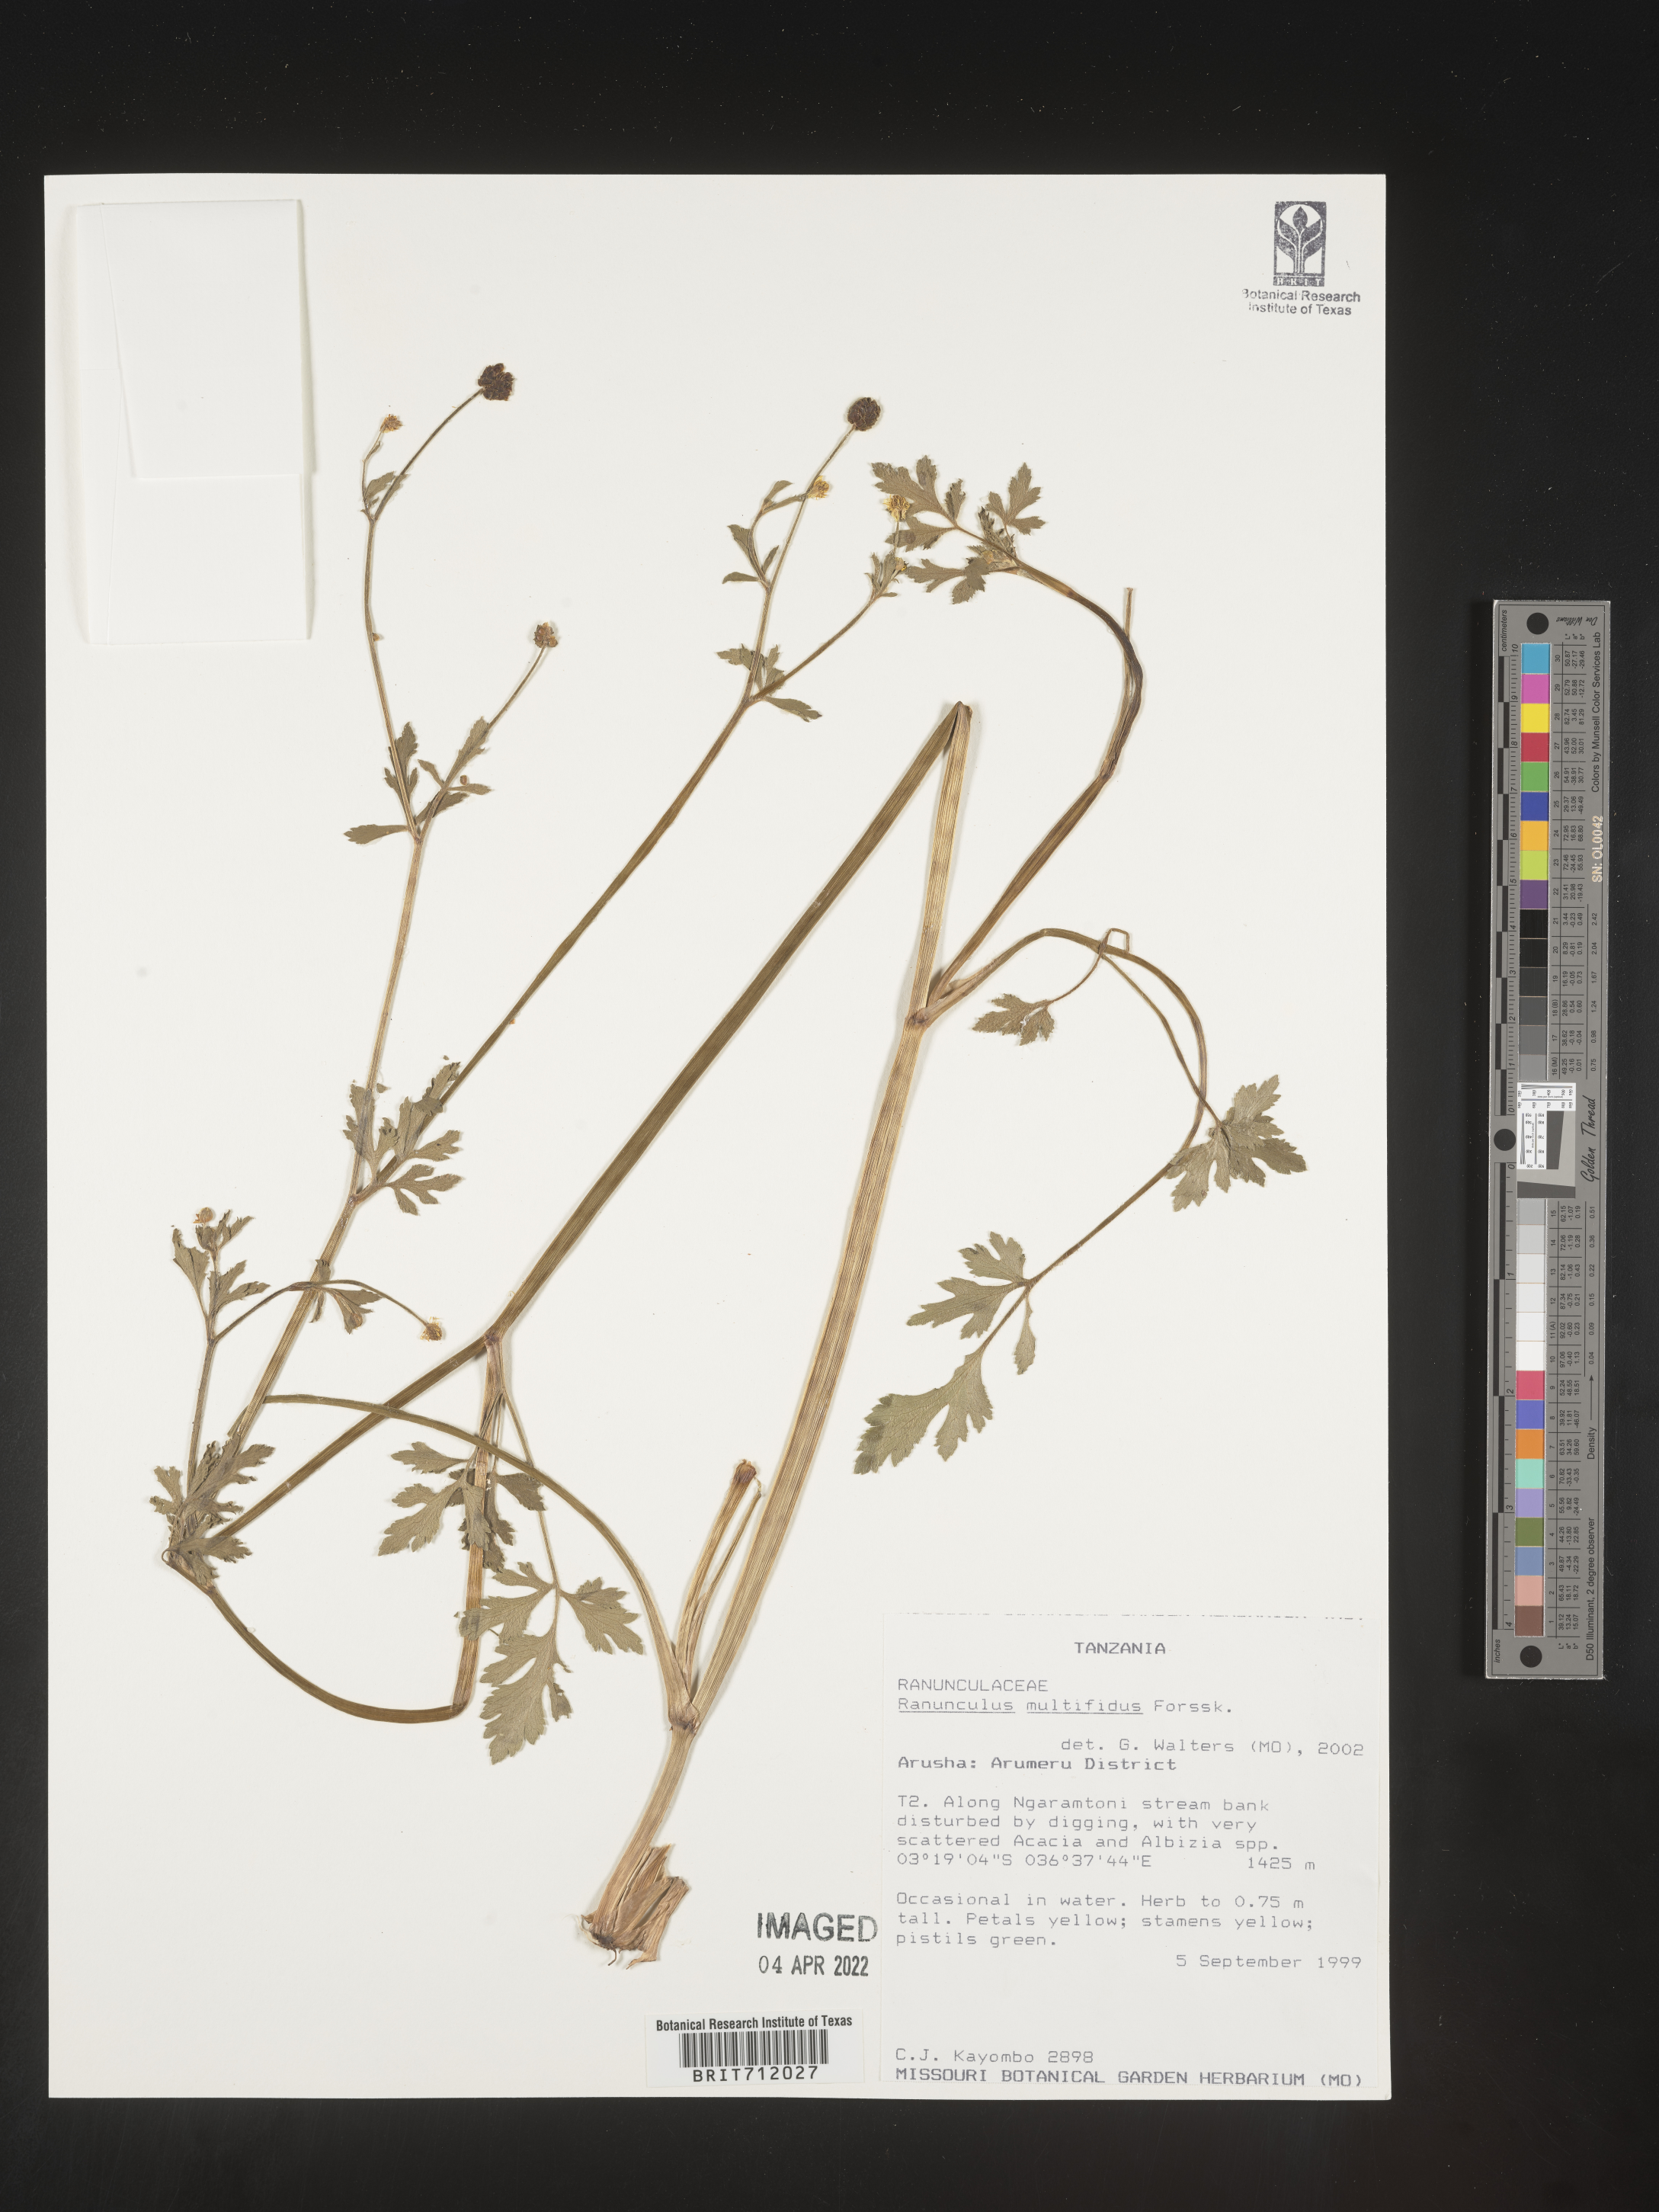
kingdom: Plantae
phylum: Tracheophyta
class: Magnoliopsida
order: Ranunculales
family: Ranunculaceae
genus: Ranunculus
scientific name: Ranunculus
